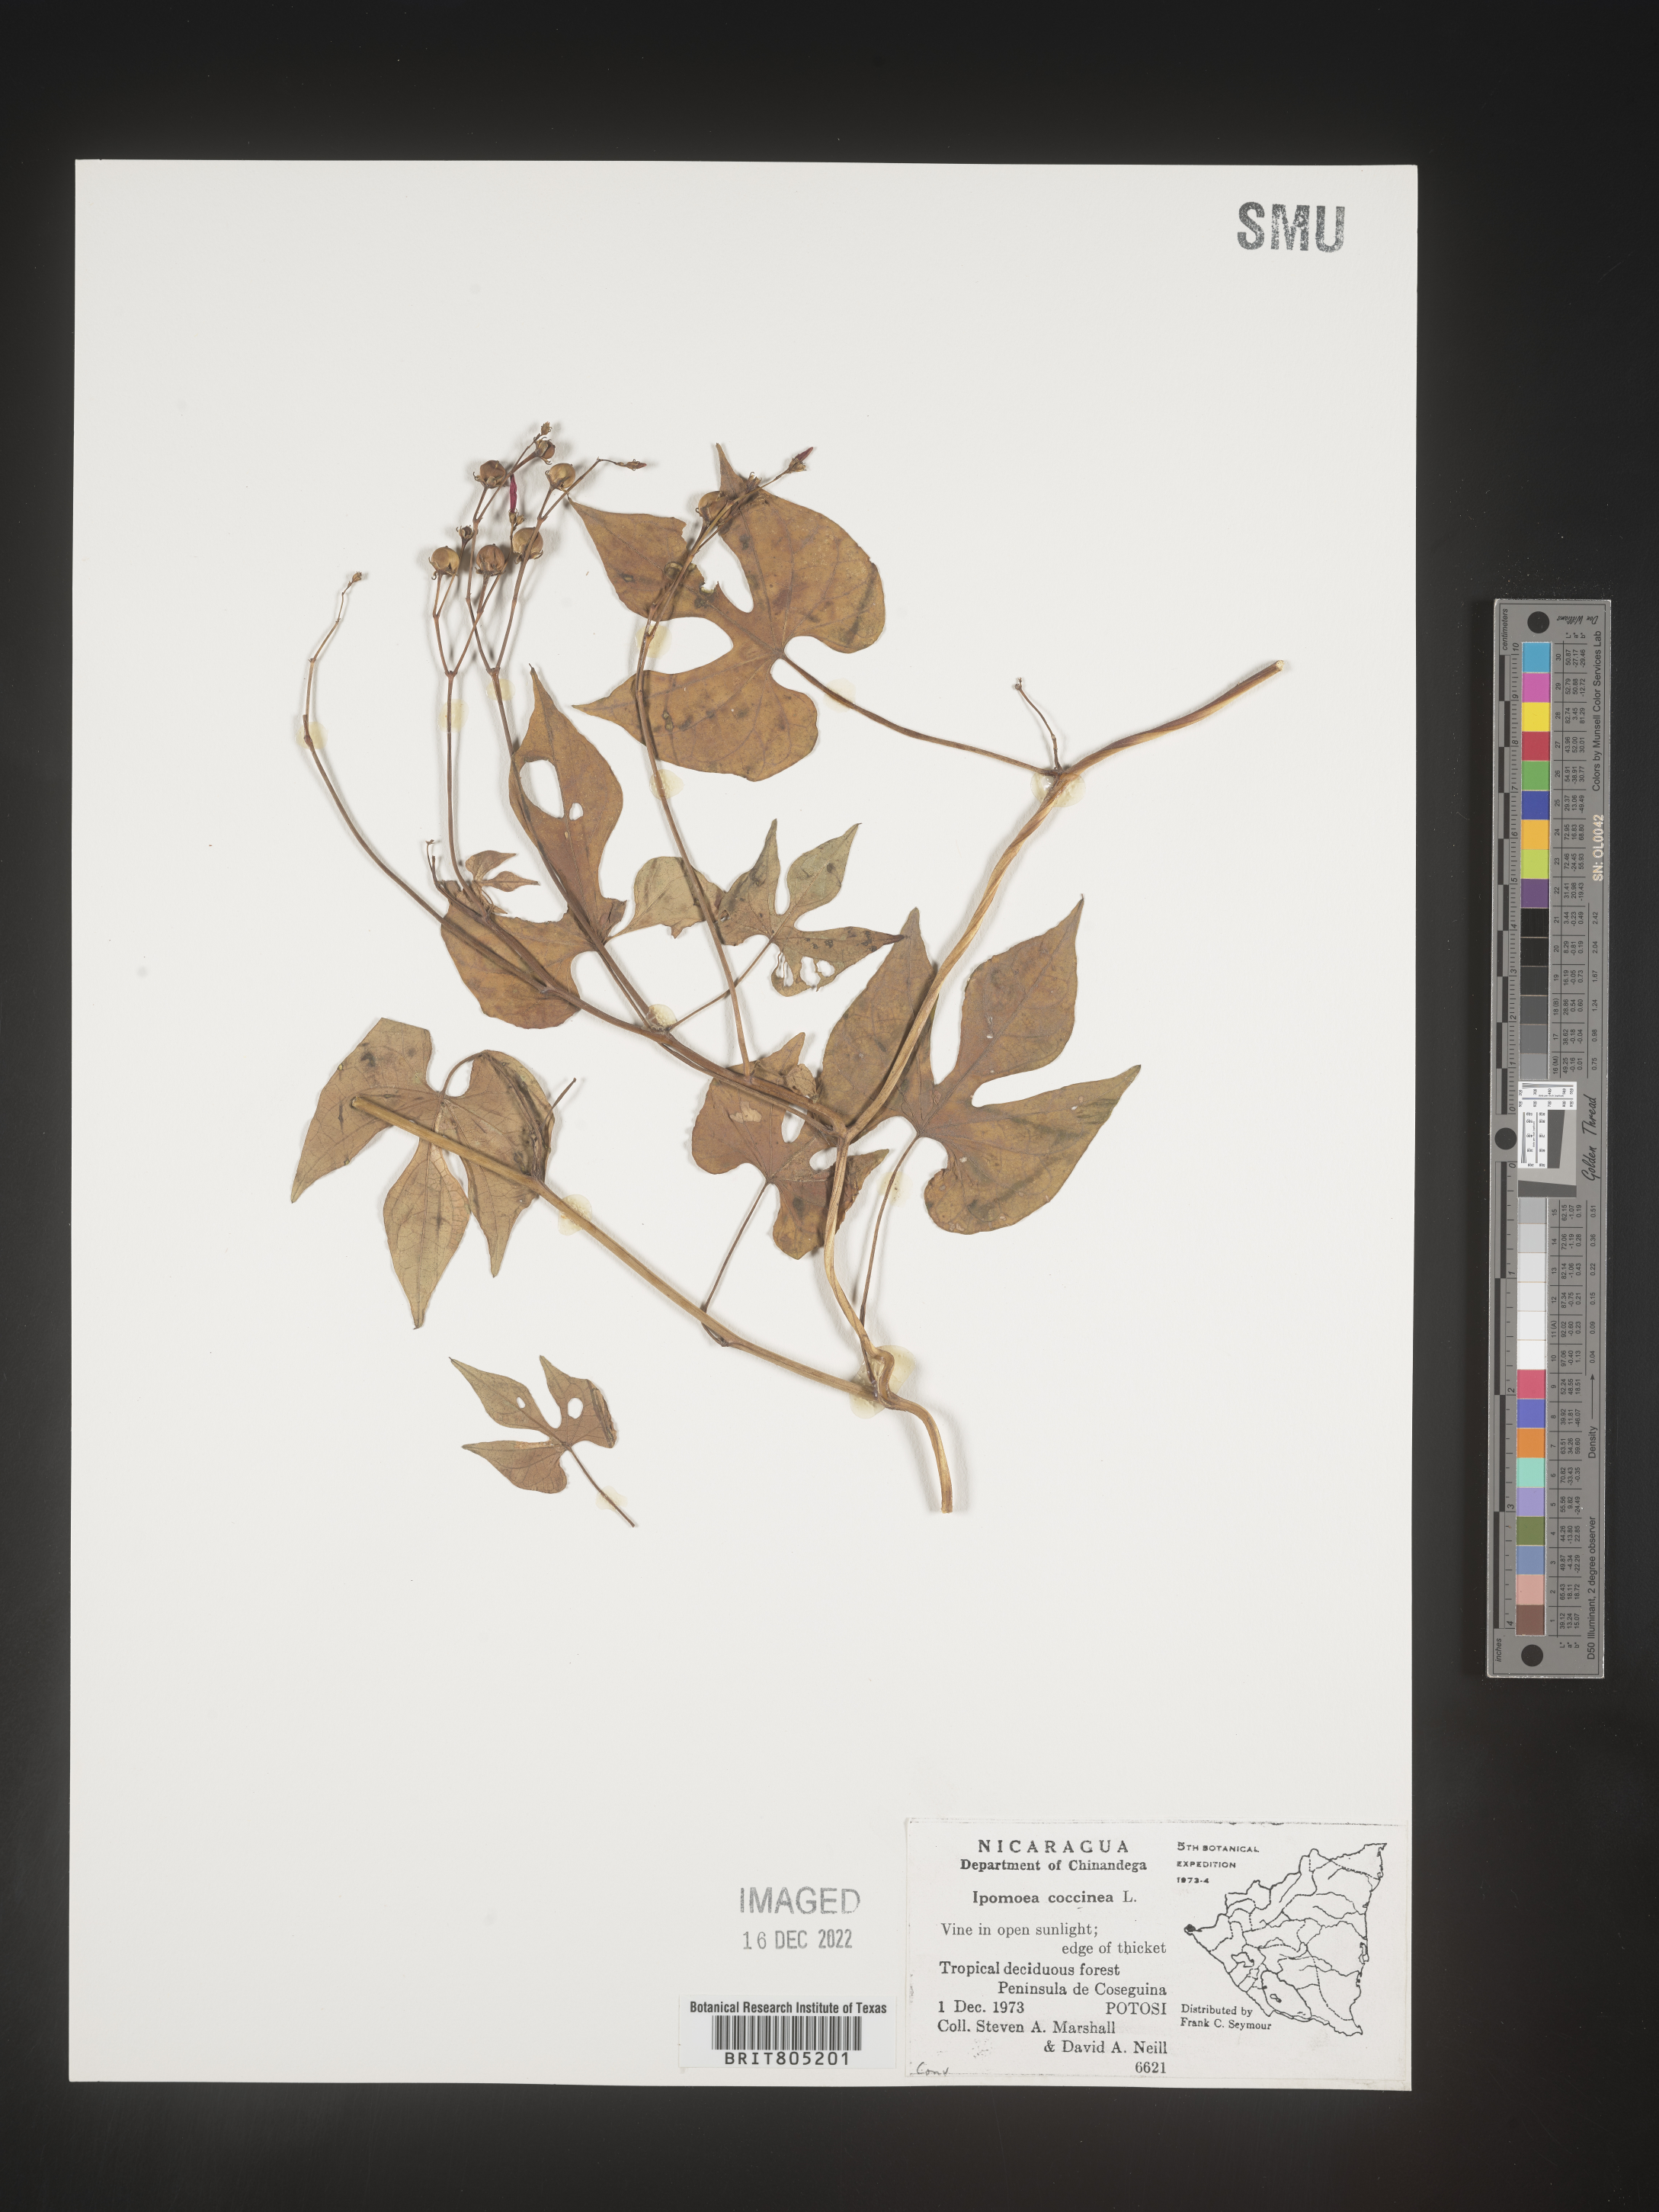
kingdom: Plantae
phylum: Tracheophyta
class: Magnoliopsida
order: Solanales
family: Convolvulaceae
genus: Ipomoea
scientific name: Ipomoea
